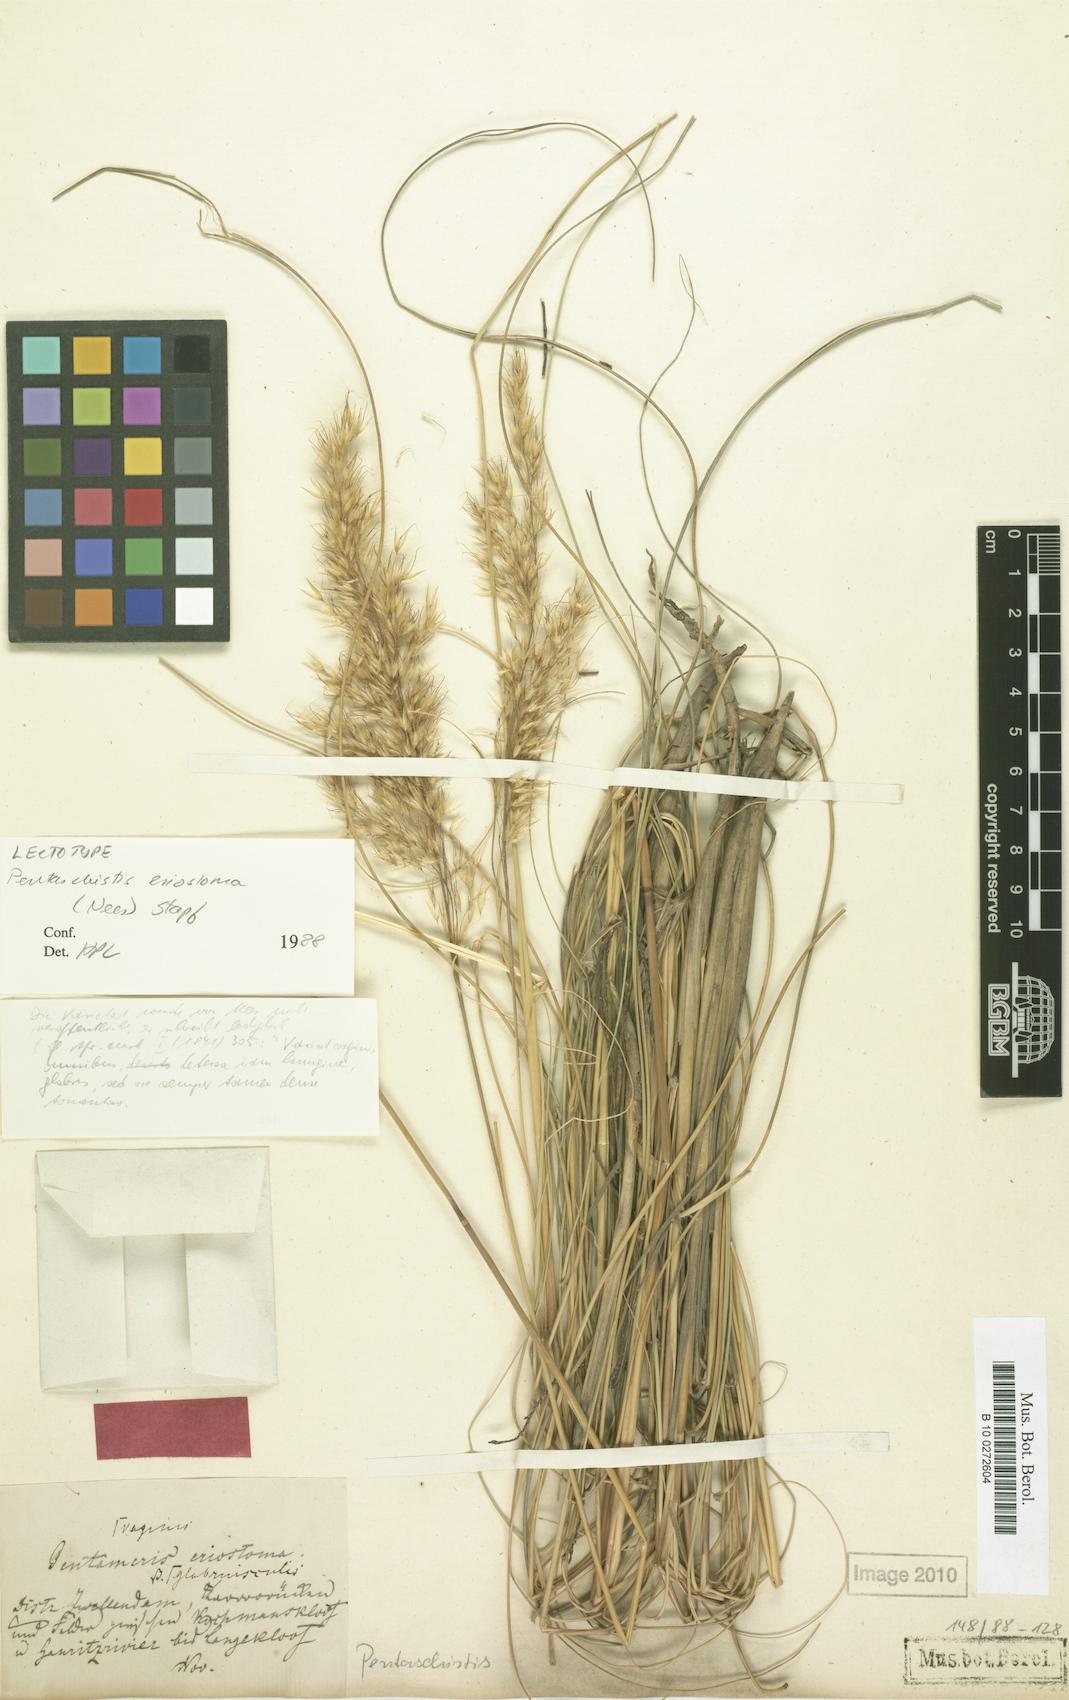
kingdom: Plantae
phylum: Tracheophyta
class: Liliopsida
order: Poales
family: Poaceae
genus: Pentameris
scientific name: Pentameris eriostoma
